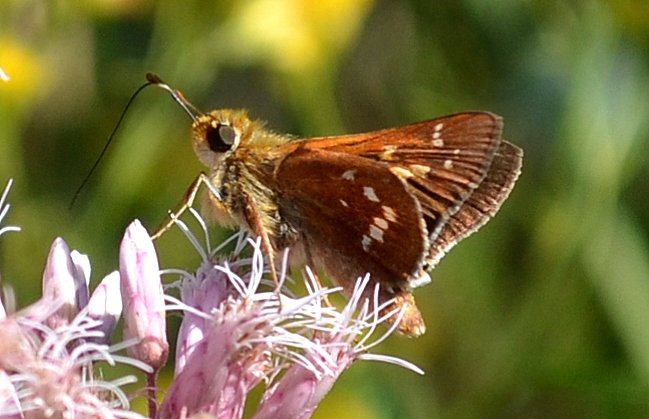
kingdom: Animalia
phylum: Arthropoda
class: Insecta
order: Lepidoptera
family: Hesperiidae
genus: Hesperia
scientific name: Hesperia leonardus
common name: Leonard's Skipper
